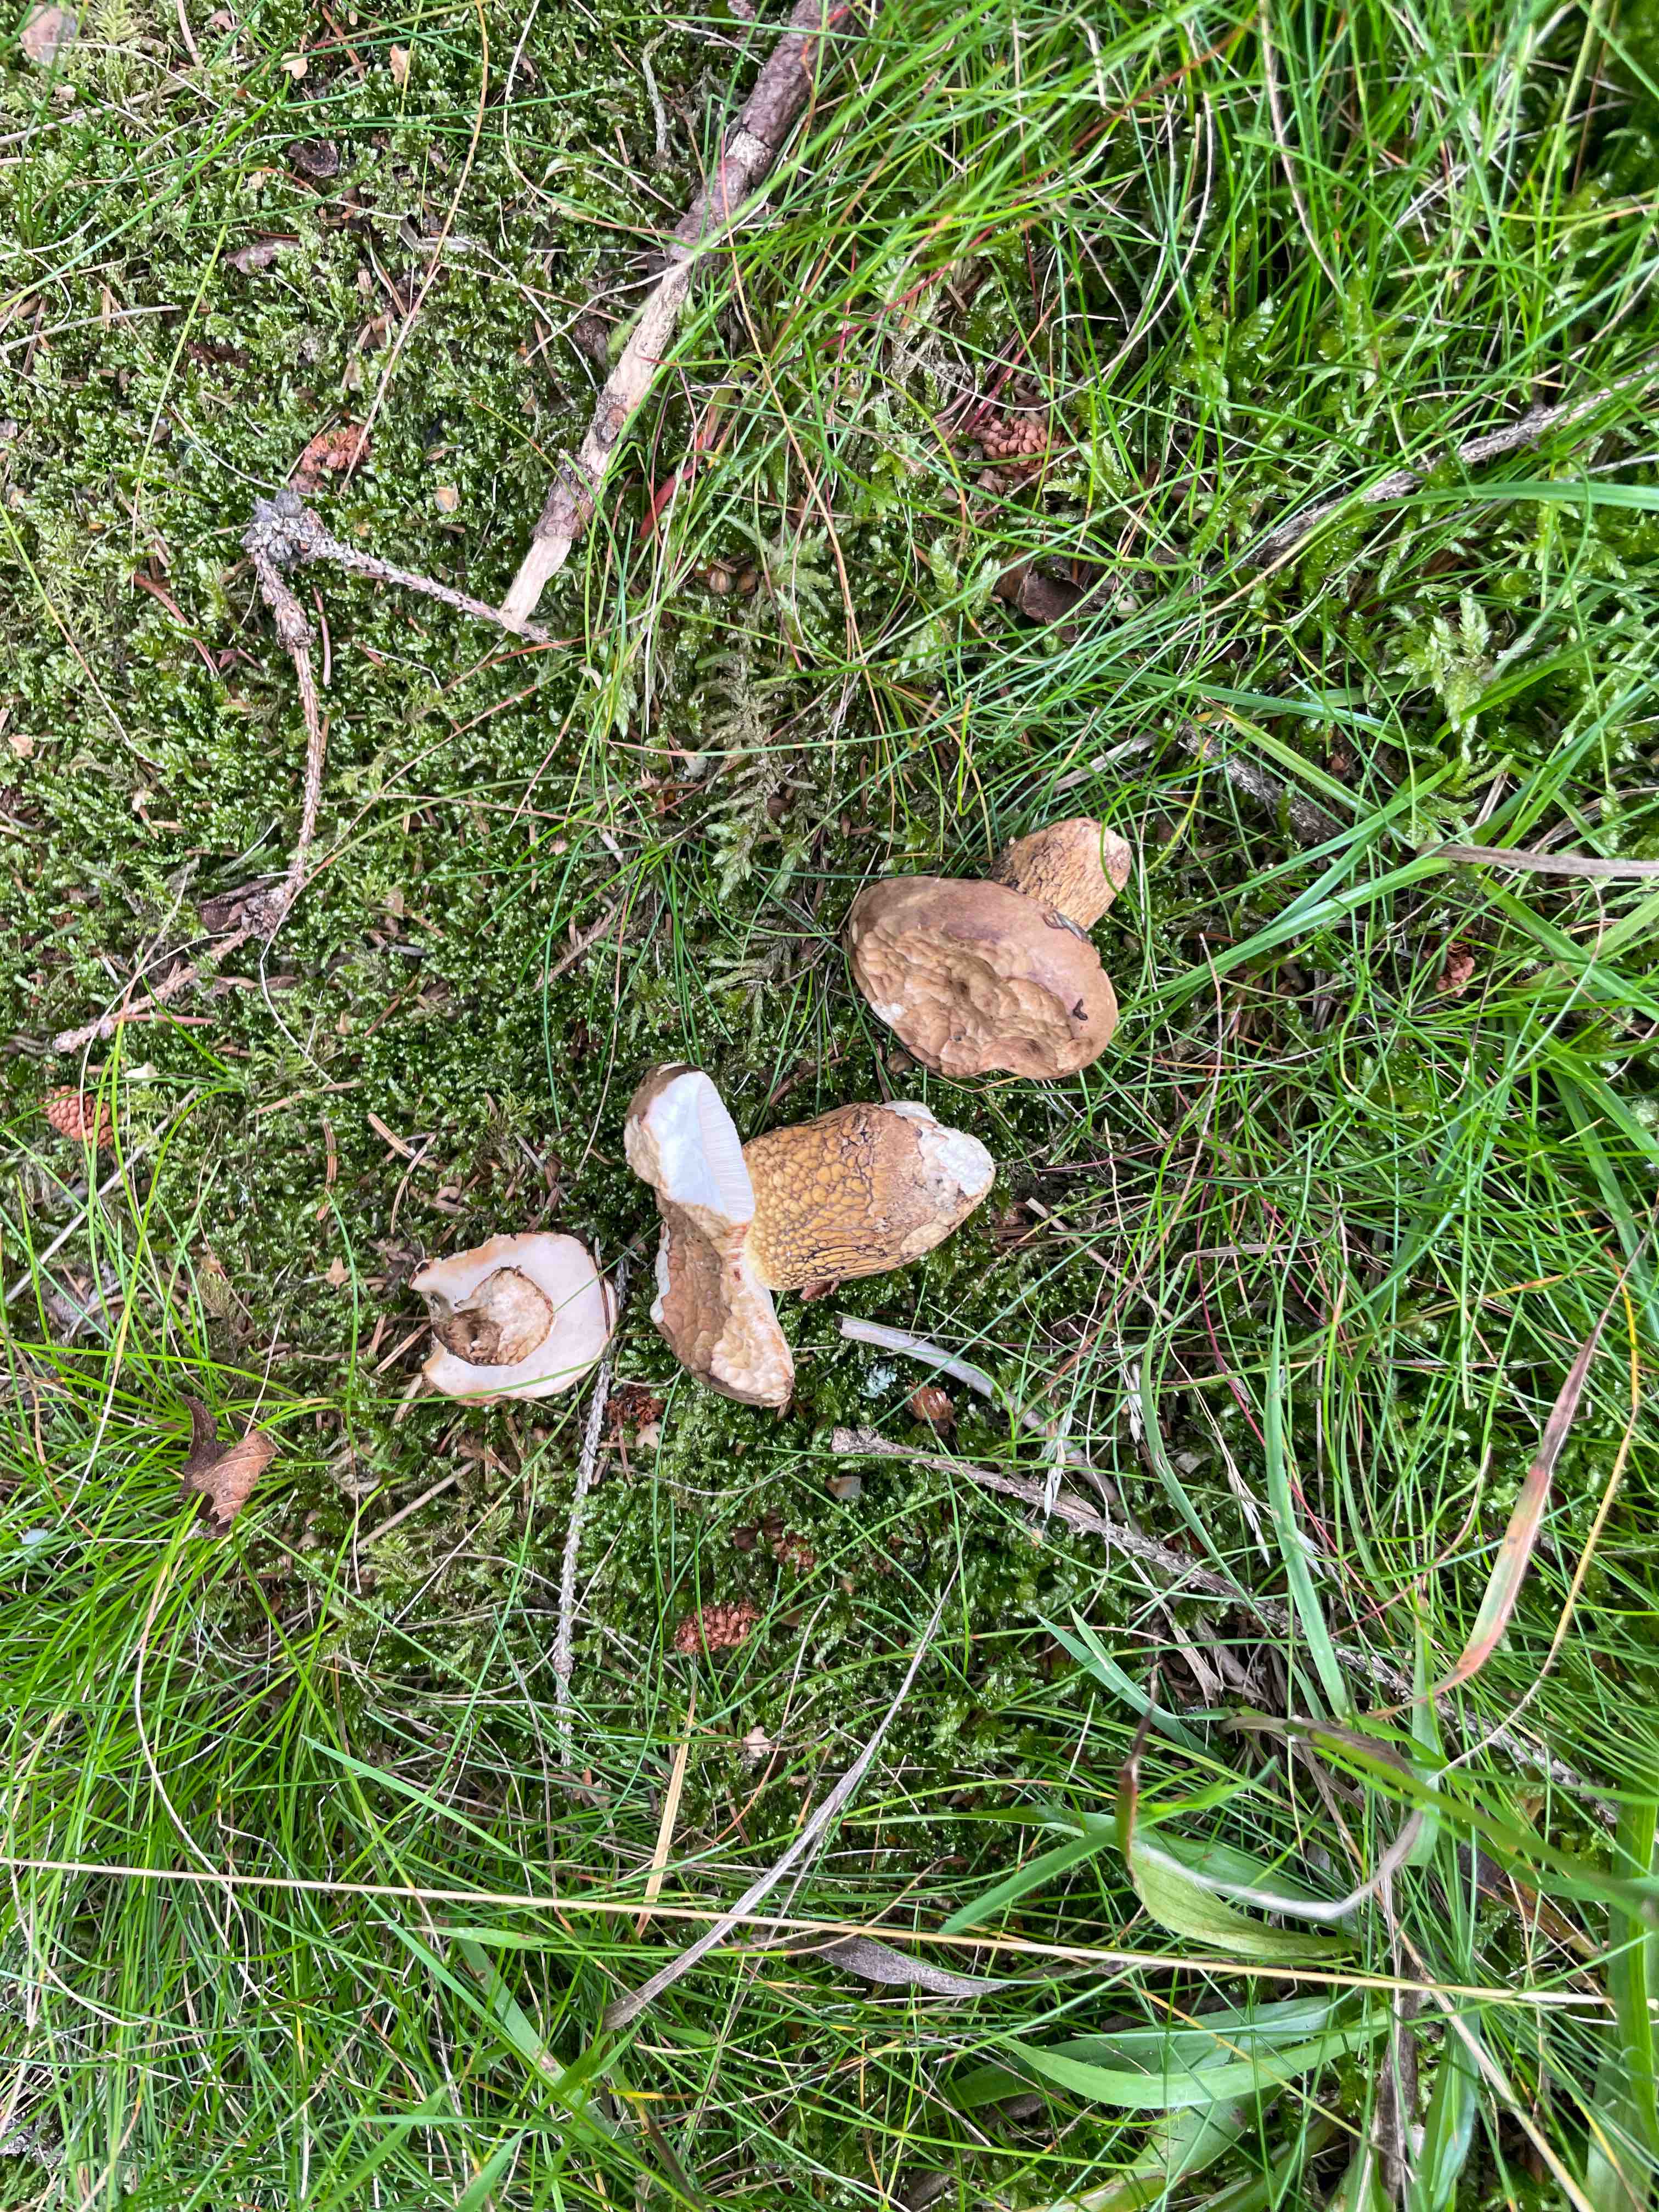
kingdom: Fungi
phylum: Basidiomycota
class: Agaricomycetes
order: Boletales
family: Boletaceae
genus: Tylopilus
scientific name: Tylopilus felleus
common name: galderørhat
